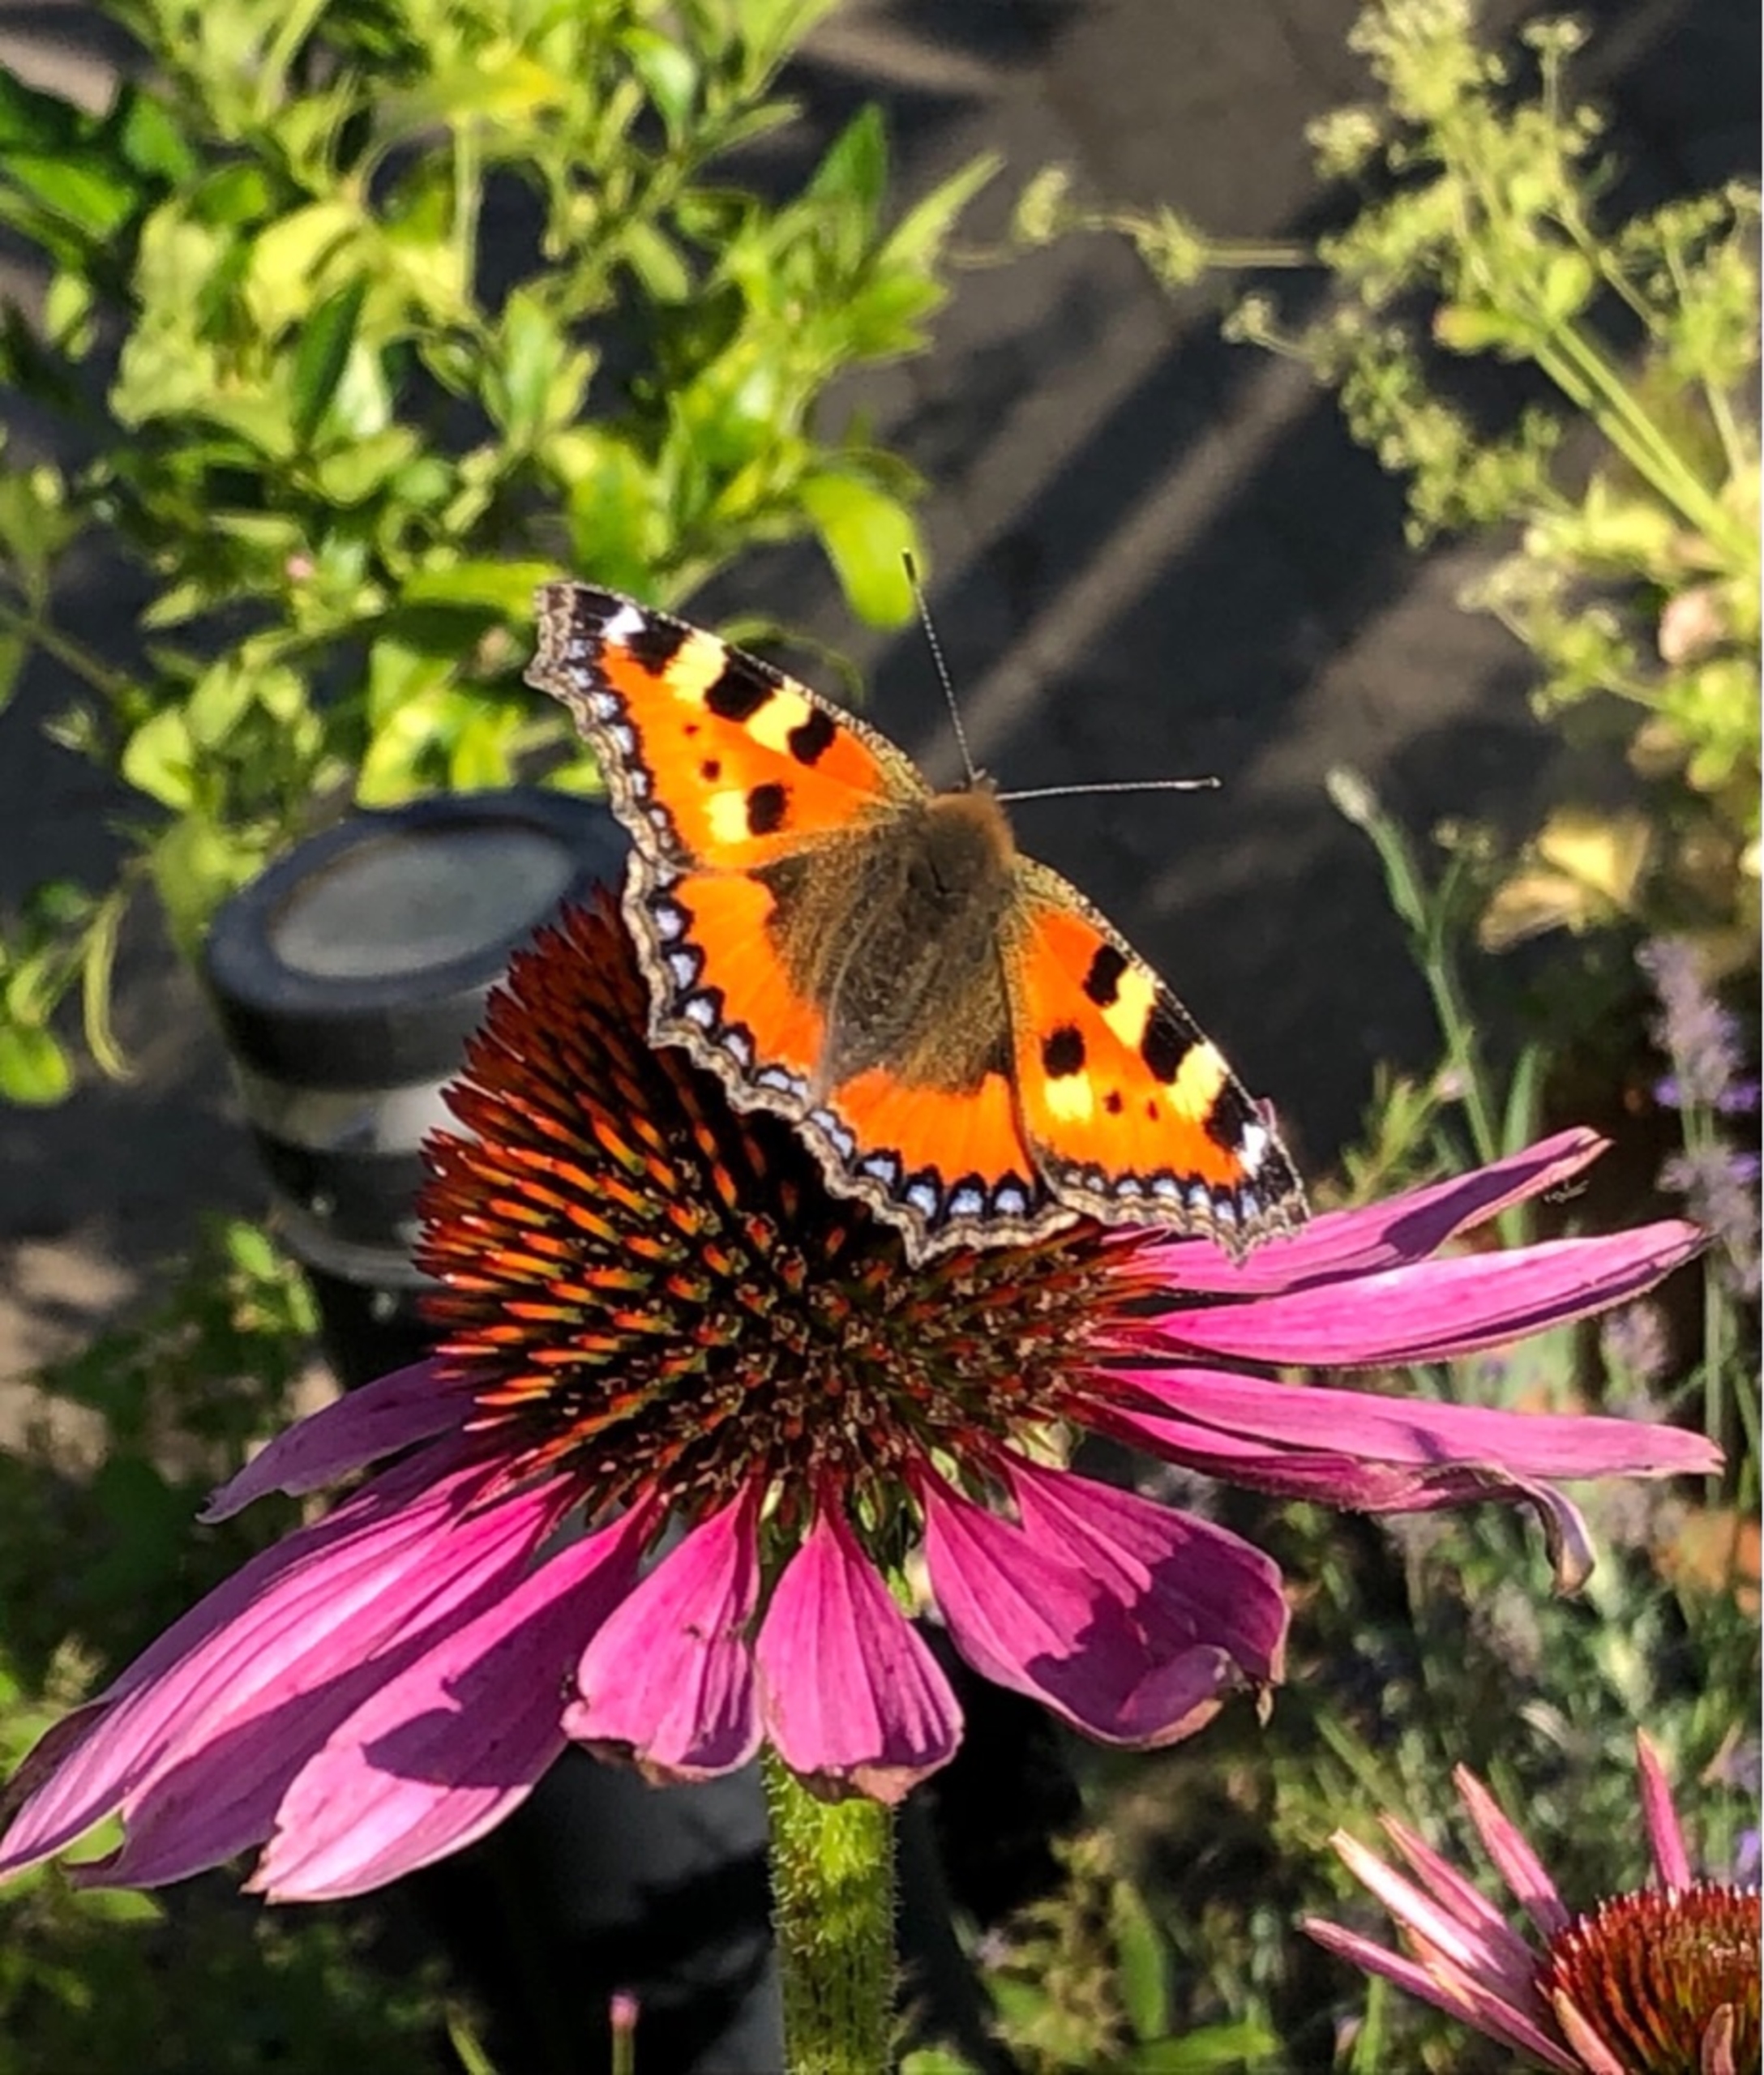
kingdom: Animalia
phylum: Arthropoda
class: Insecta
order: Lepidoptera
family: Nymphalidae
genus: Aglais
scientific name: Aglais urticae
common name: Nældens takvinge
